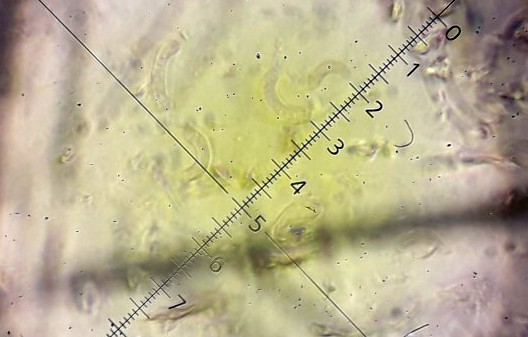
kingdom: Fungi
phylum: Ascomycota
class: Sordariomycetes
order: Xylariales
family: Diatrypaceae
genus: Diatrypella
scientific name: Diatrypella quercina
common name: ege-kulskorpe
